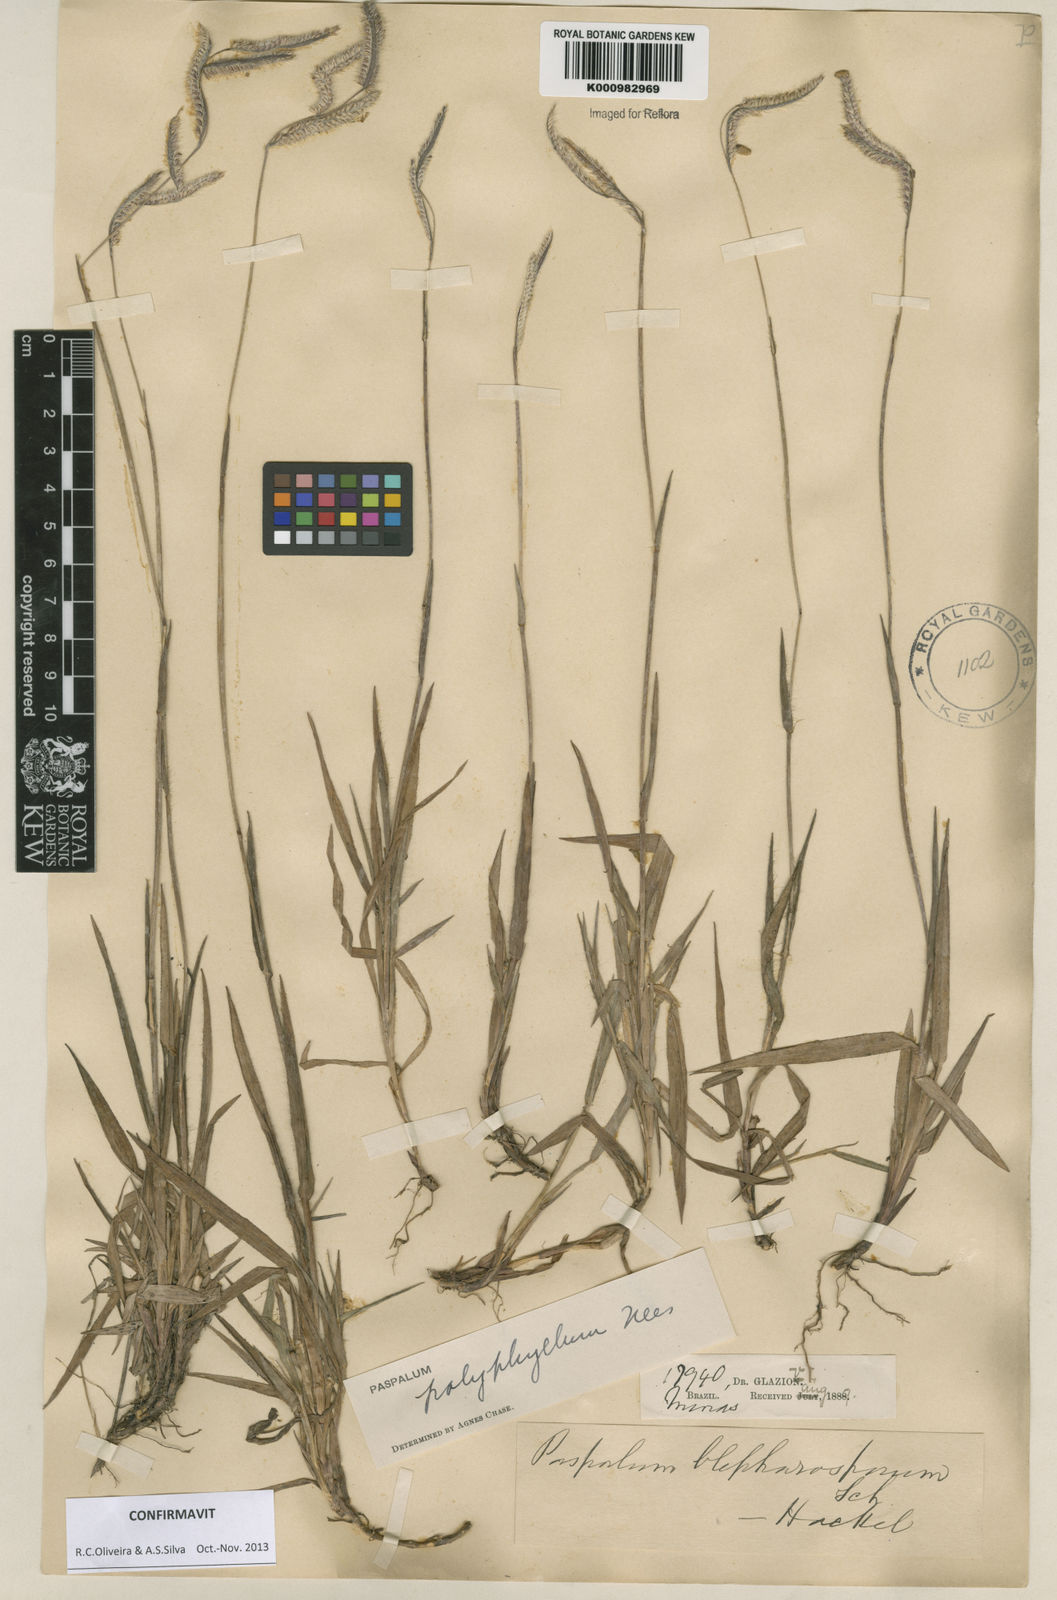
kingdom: Plantae
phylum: Tracheophyta
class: Liliopsida
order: Poales
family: Poaceae
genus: Paspalum
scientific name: Paspalum
